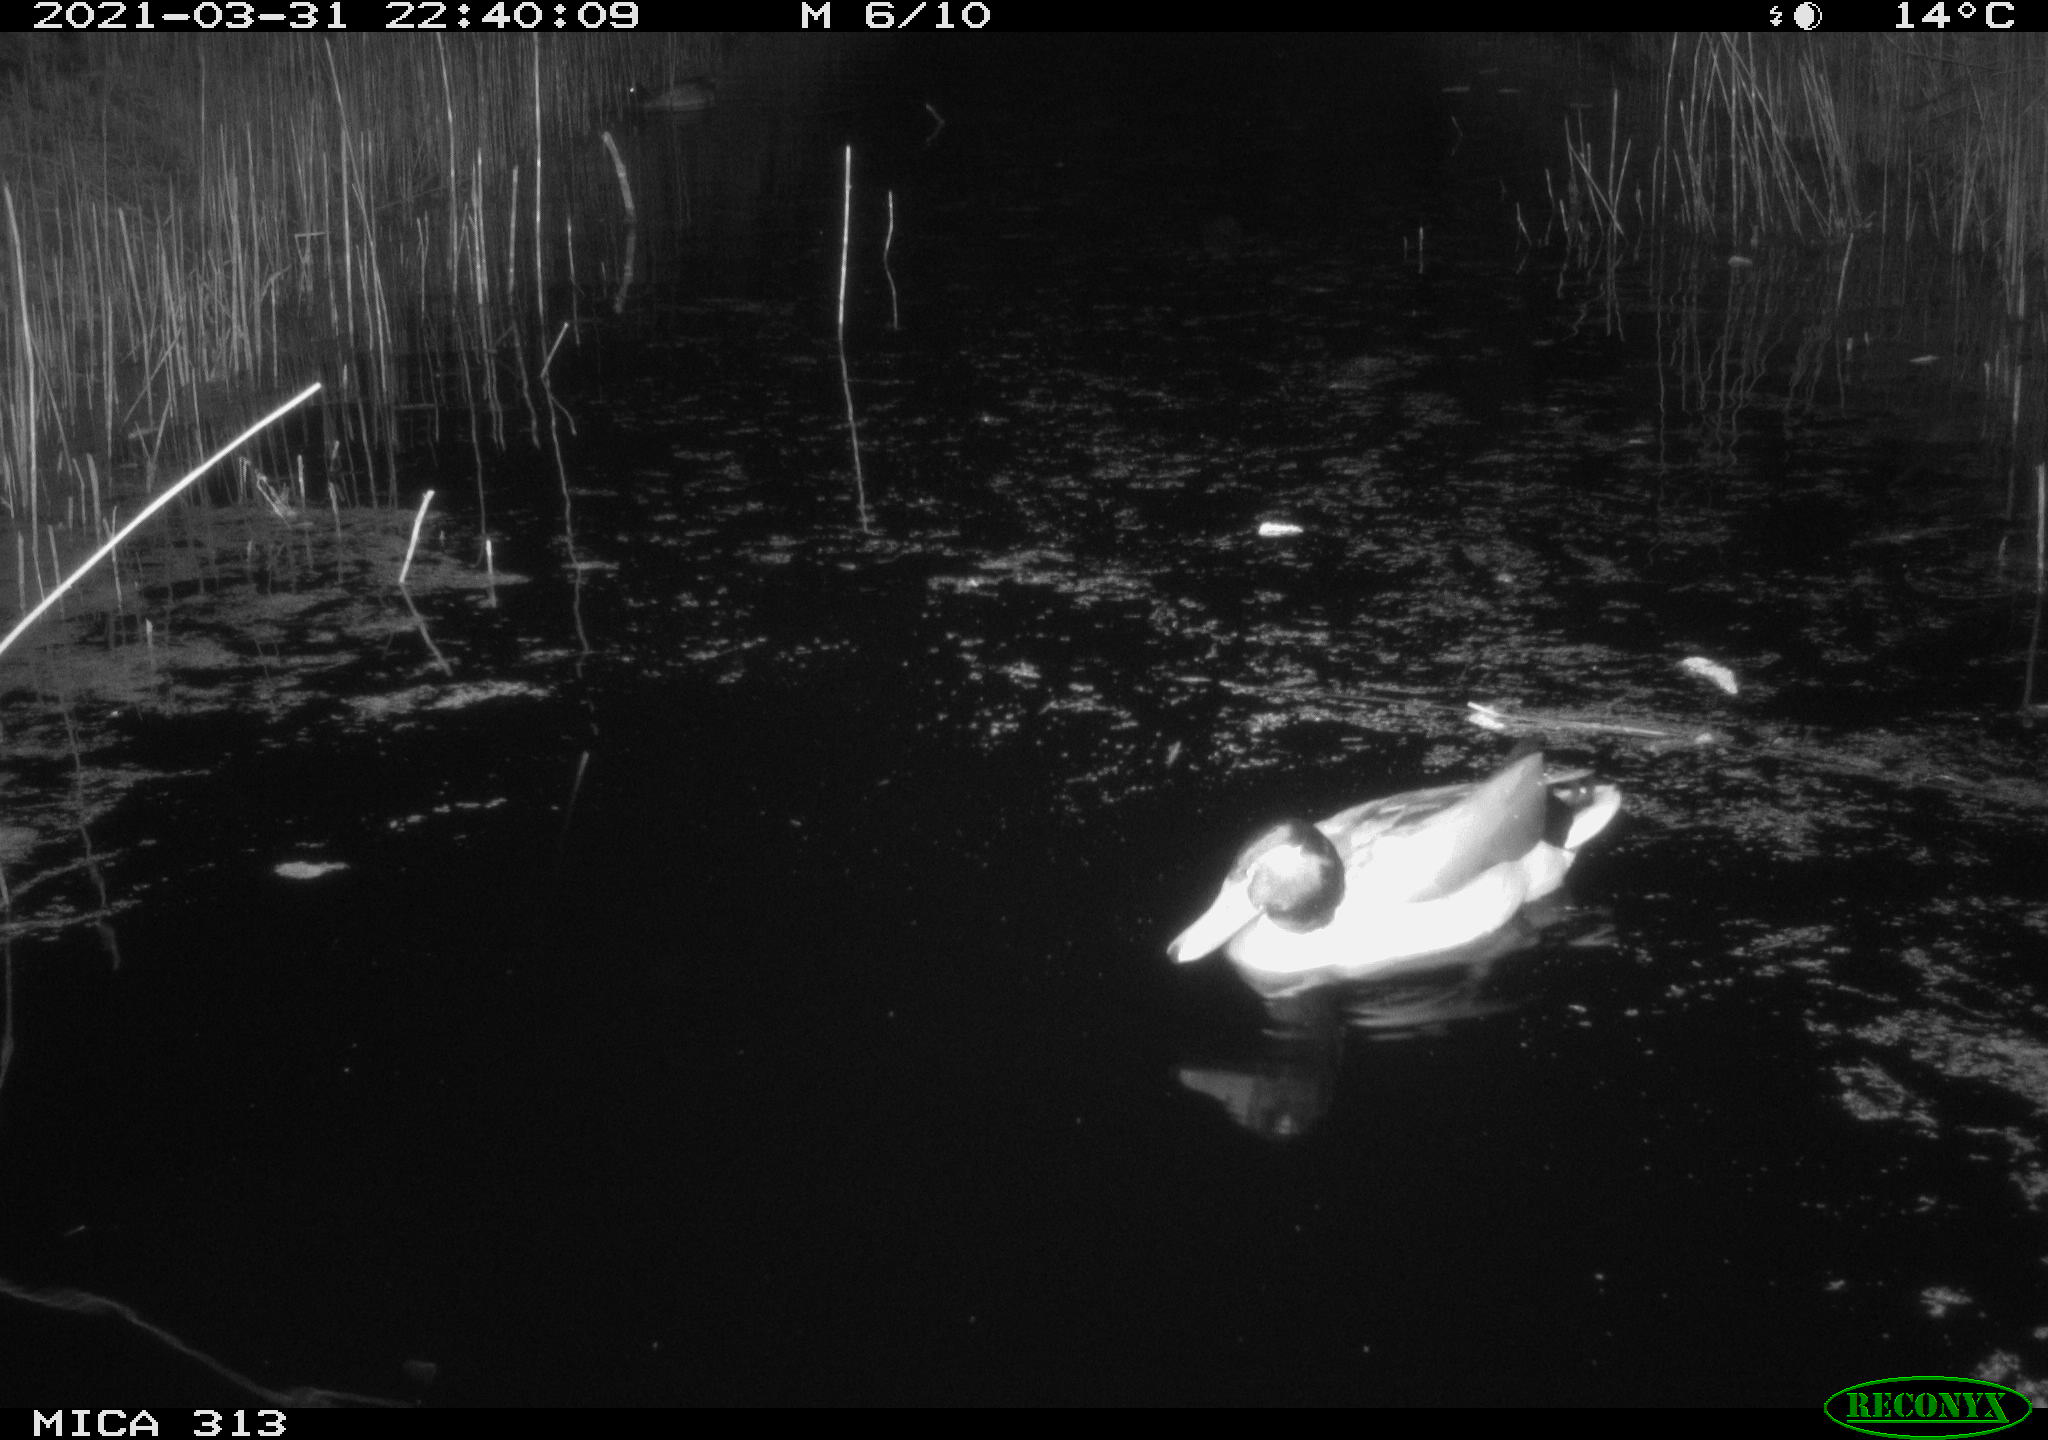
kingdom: Animalia
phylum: Chordata
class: Aves
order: Anseriformes
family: Anatidae
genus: Anas
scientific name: Anas platyrhynchos
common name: Mallard
